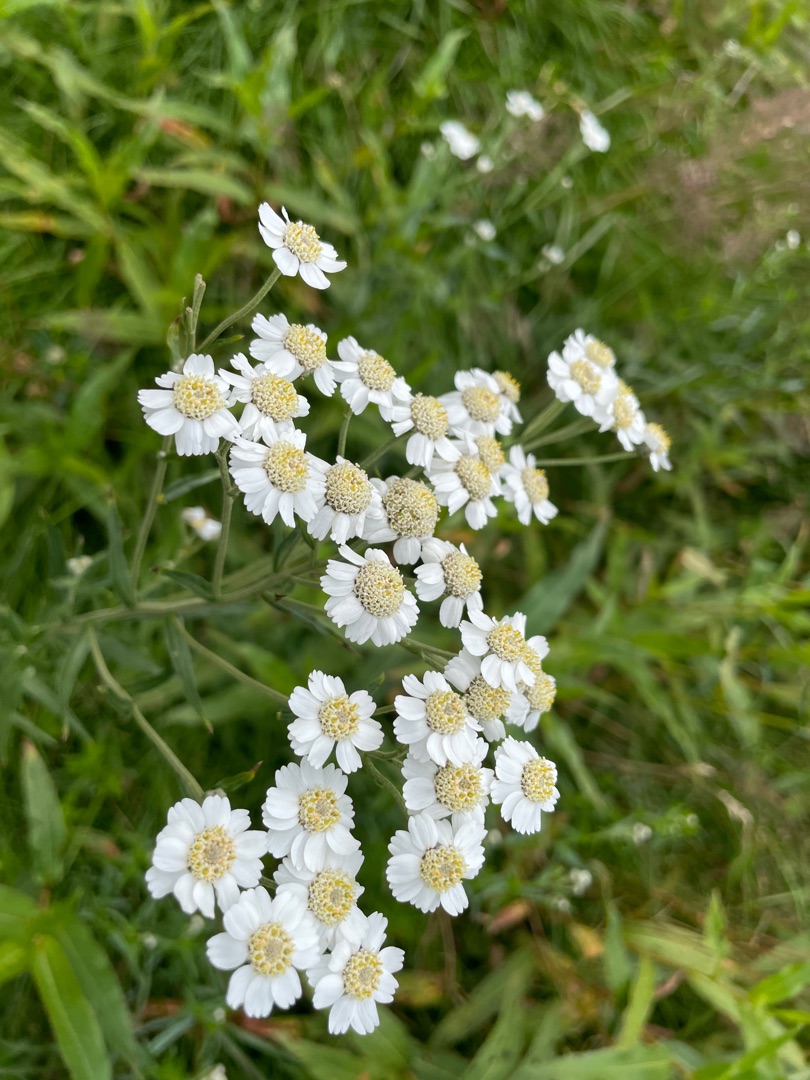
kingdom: Plantae
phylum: Tracheophyta
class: Magnoliopsida
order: Asterales
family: Asteraceae
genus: Achillea
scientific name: Achillea ptarmica
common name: Nyse-røllike
